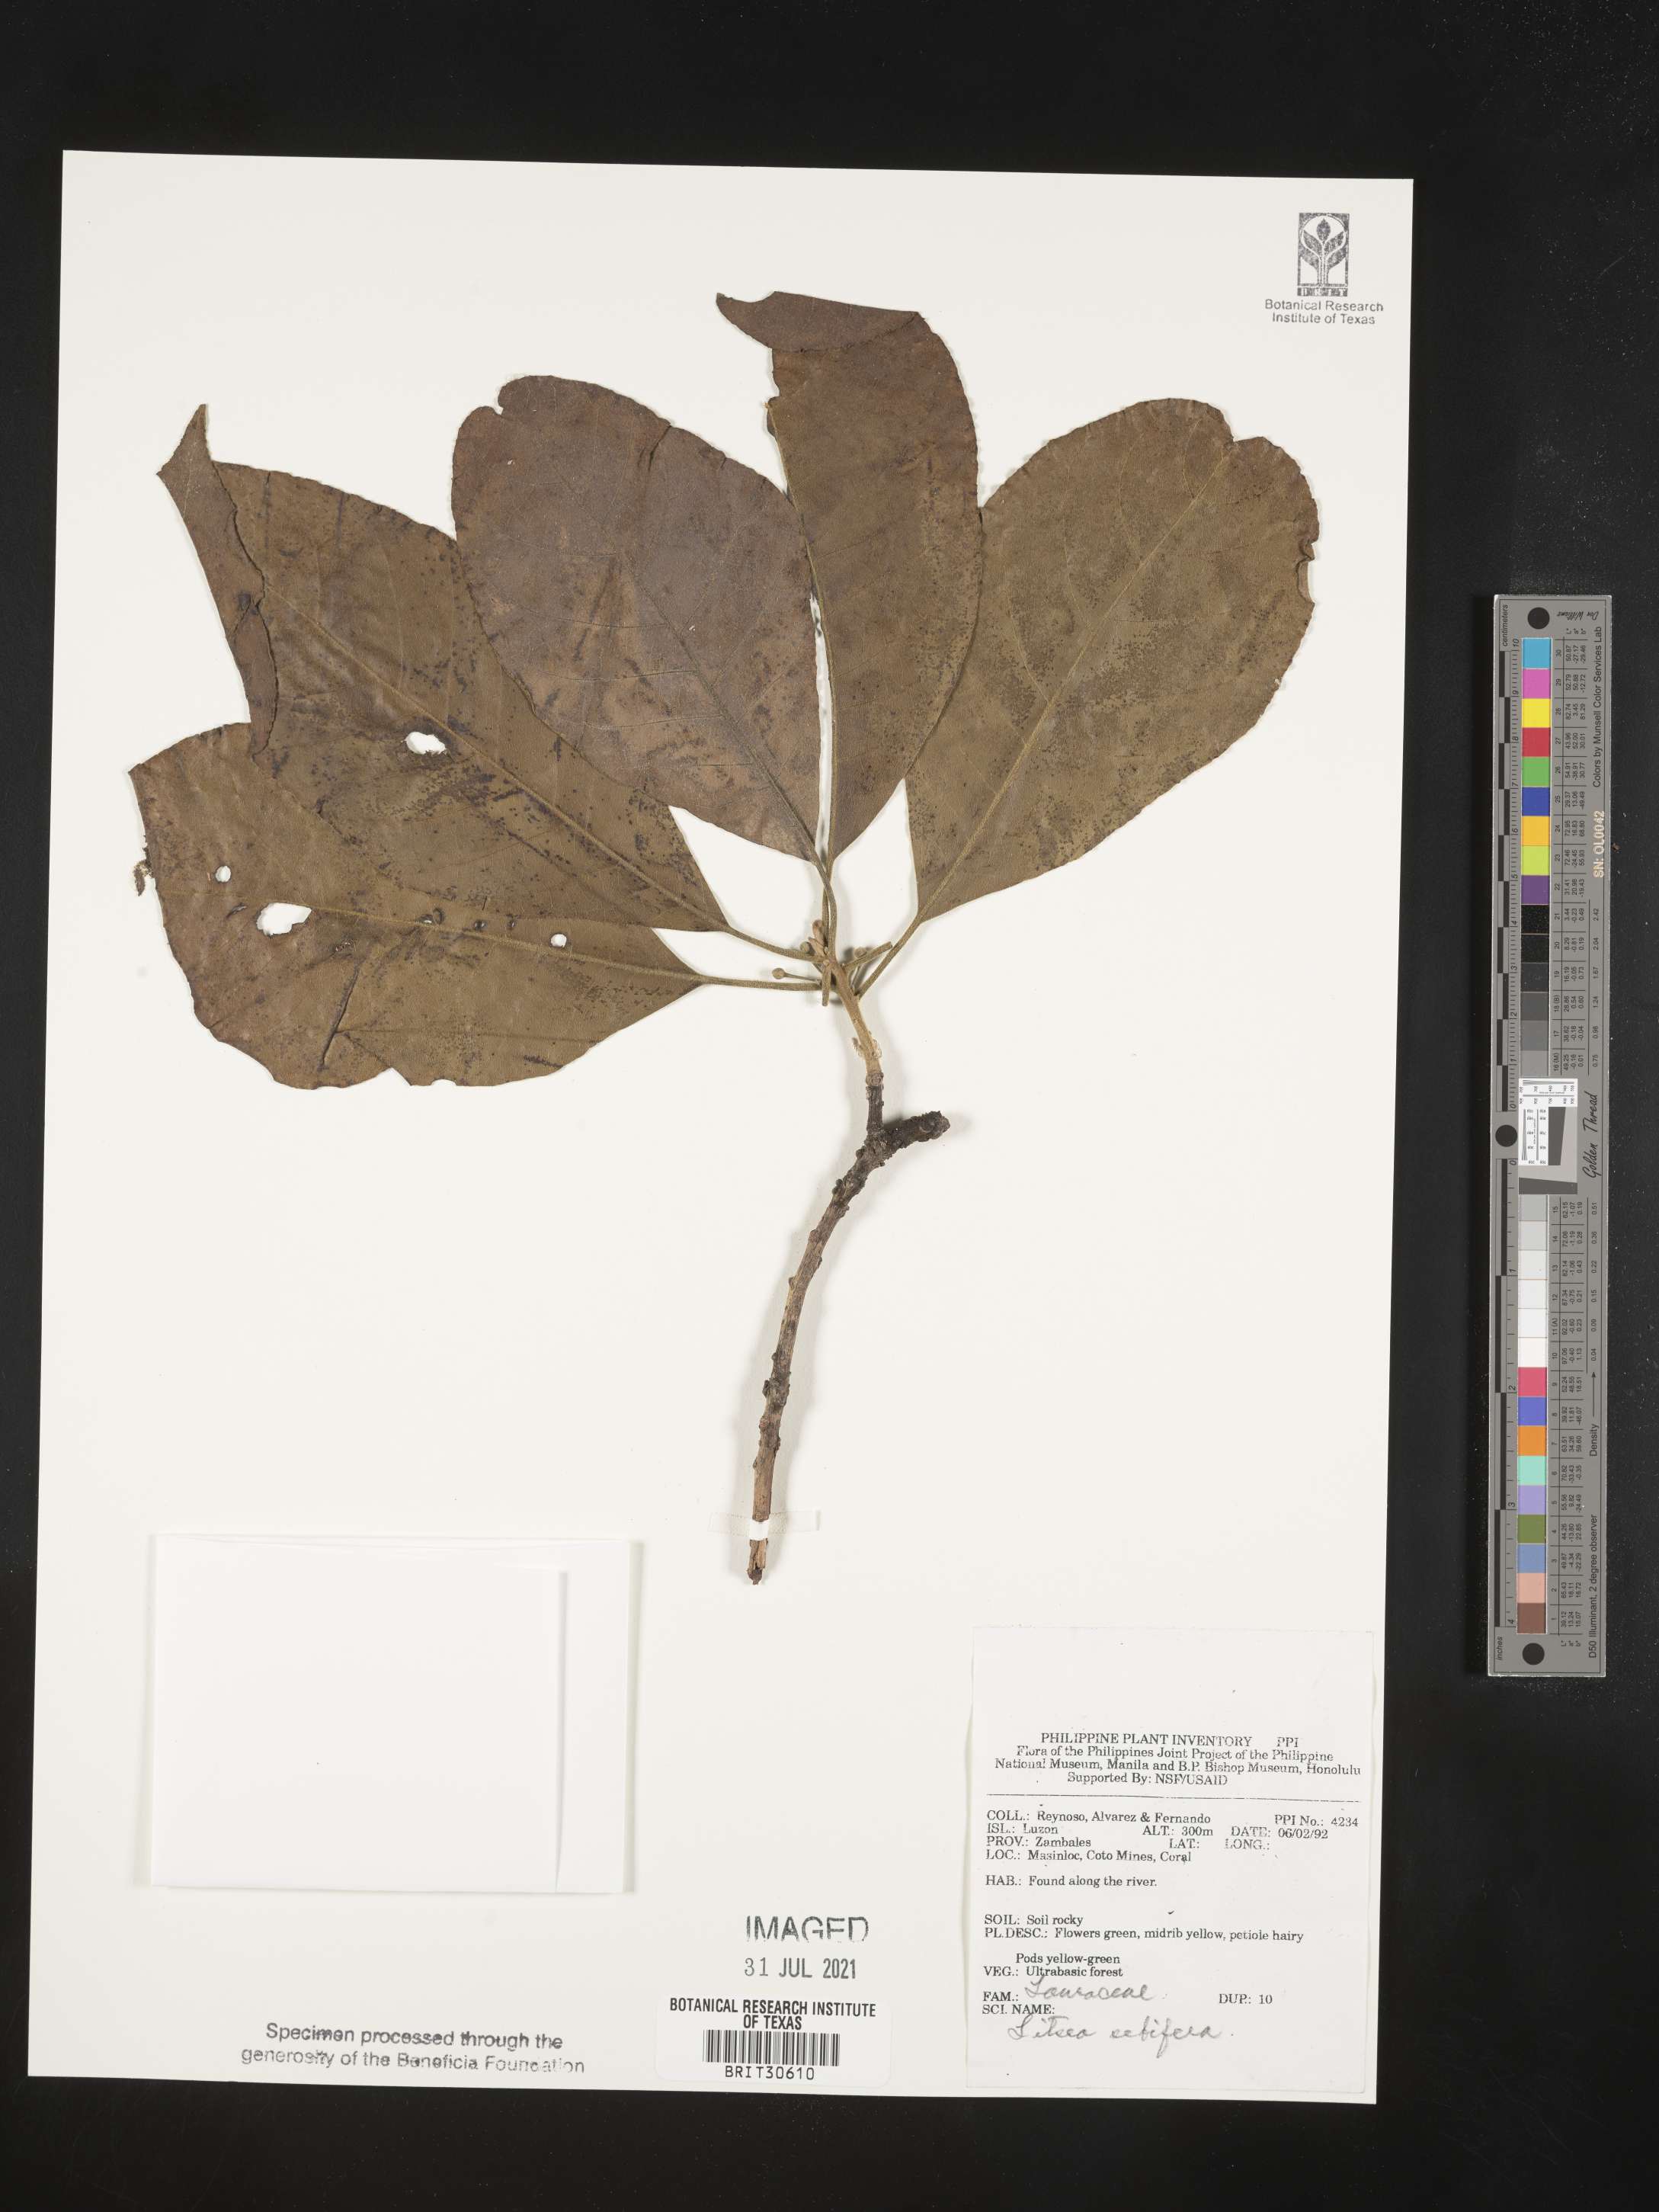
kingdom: Plantae
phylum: Tracheophyta
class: Magnoliopsida
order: Laurales
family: Lauraceae
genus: Litsea
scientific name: Litsea glutinosa
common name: Indian-laurel
